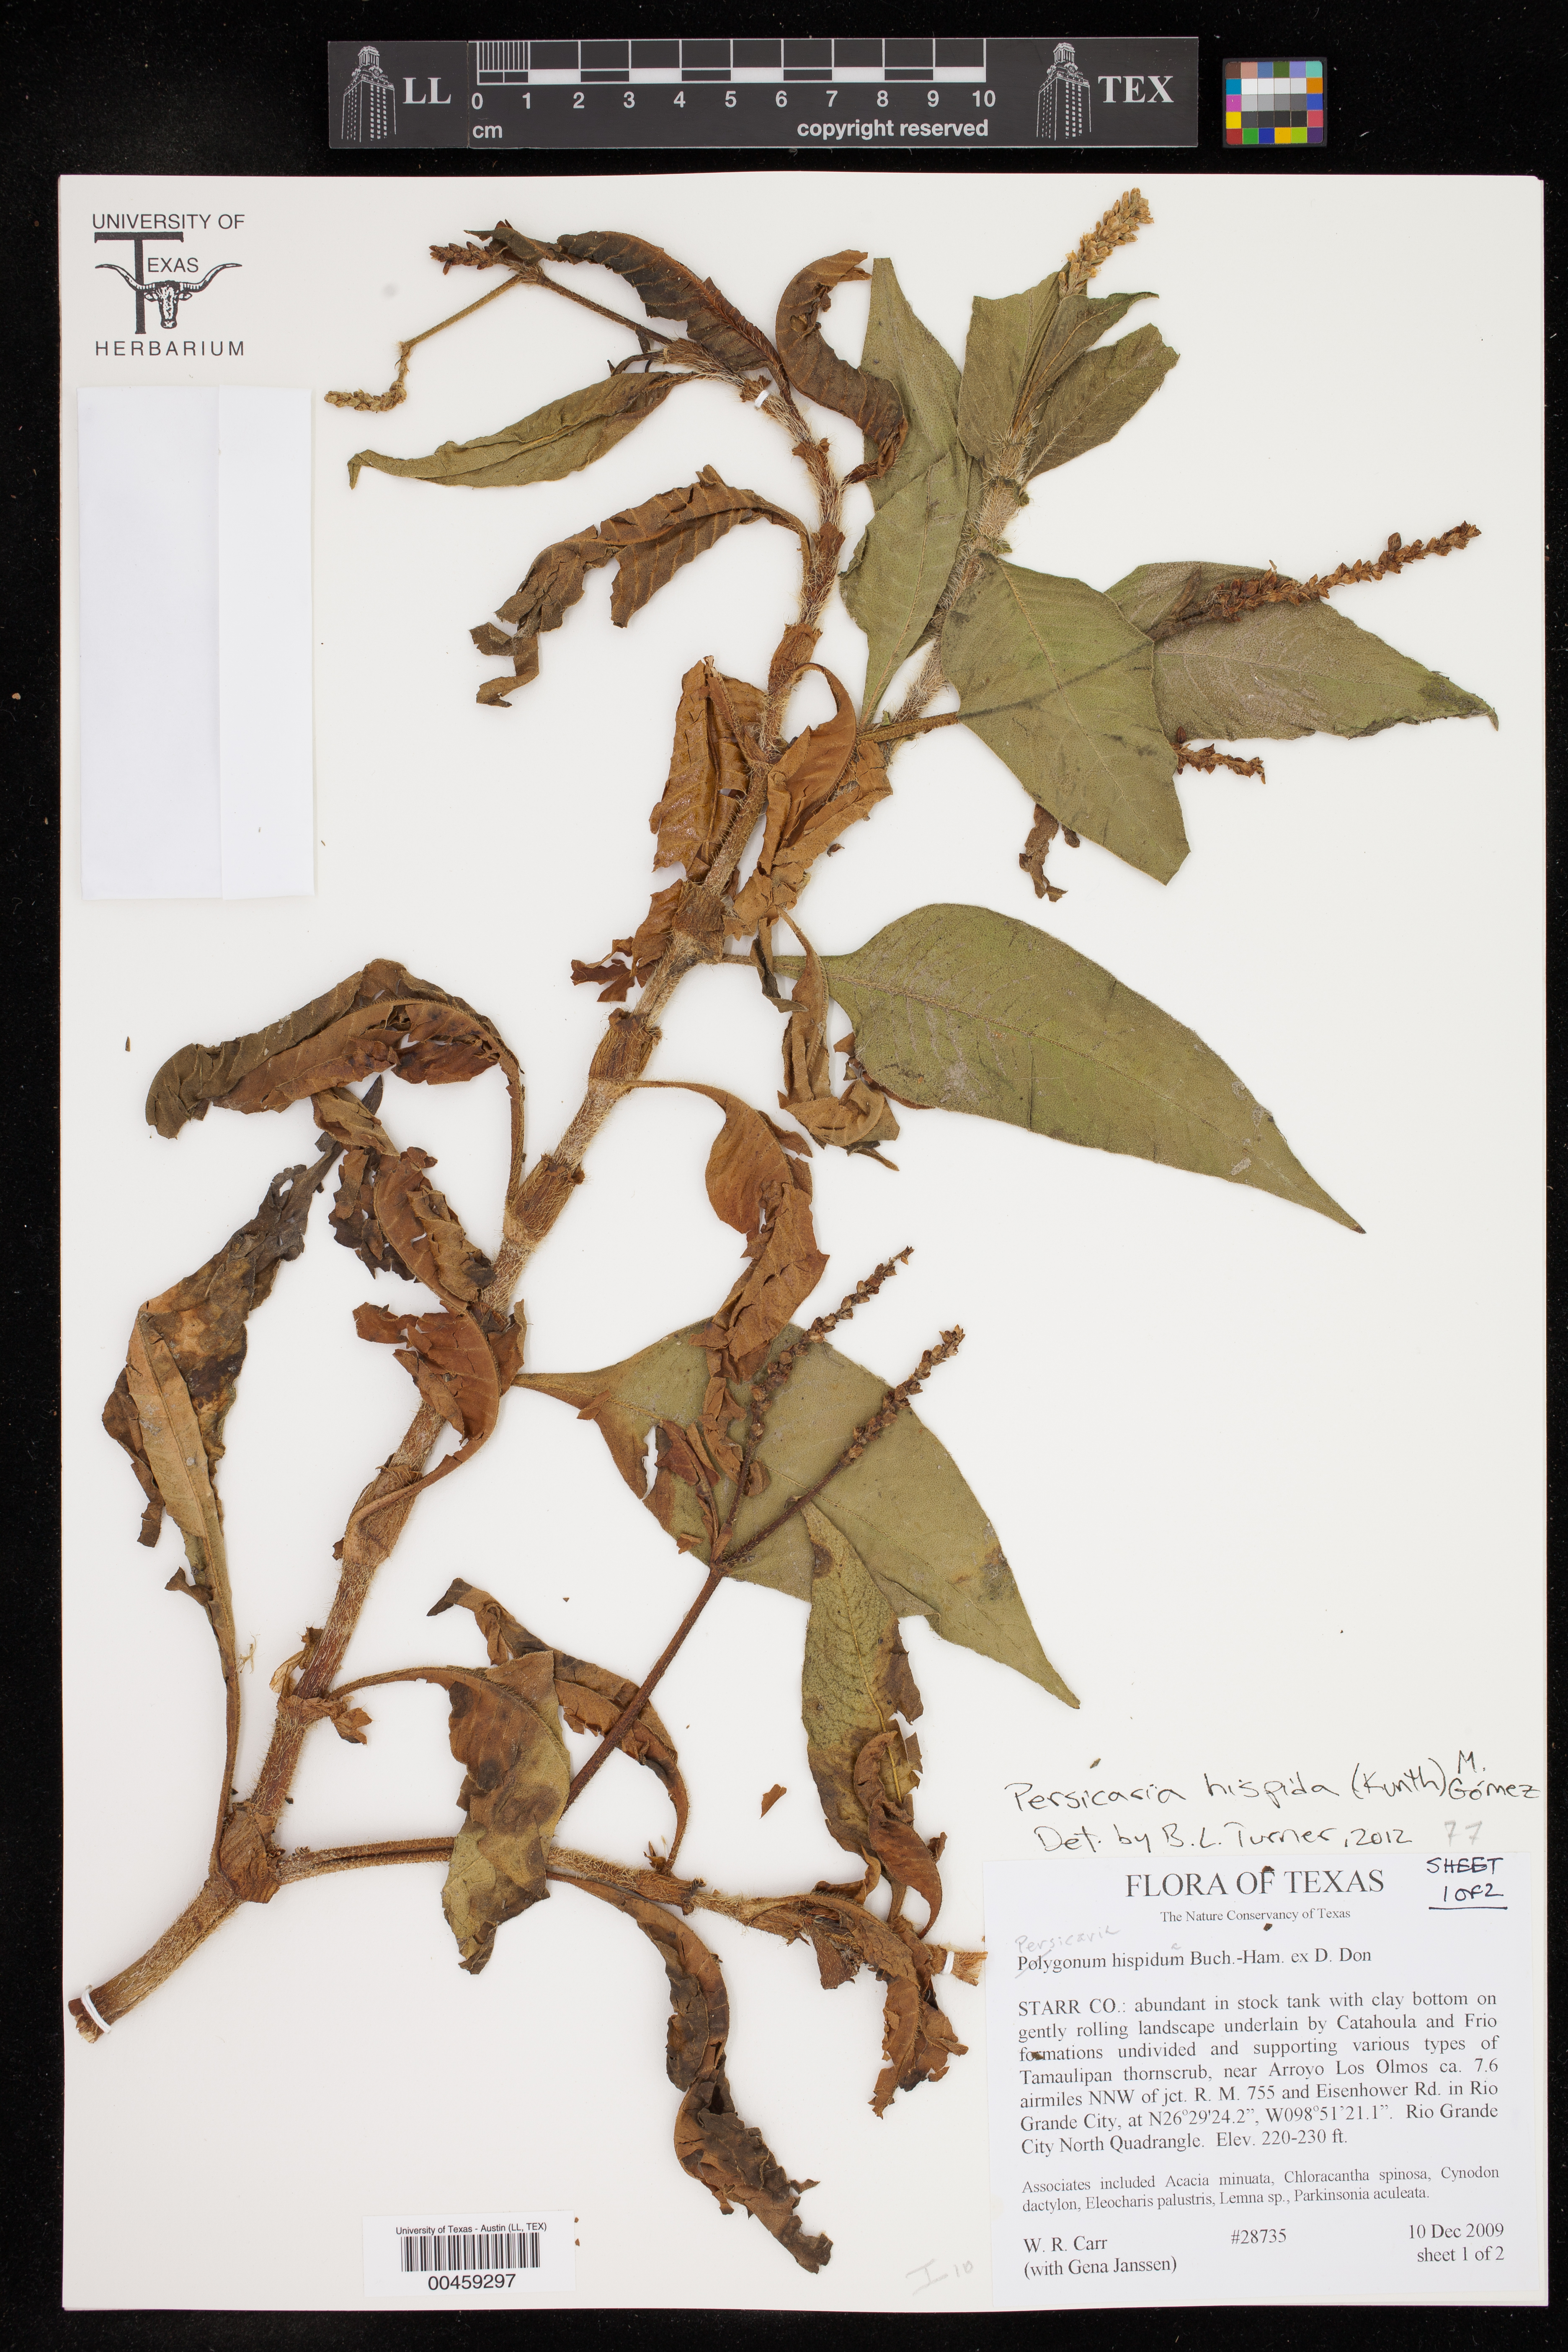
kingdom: Plantae
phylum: Tracheophyta
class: Magnoliopsida
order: Caryophyllales
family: Polygonaceae
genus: Persicaria
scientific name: Persicaria hispida
